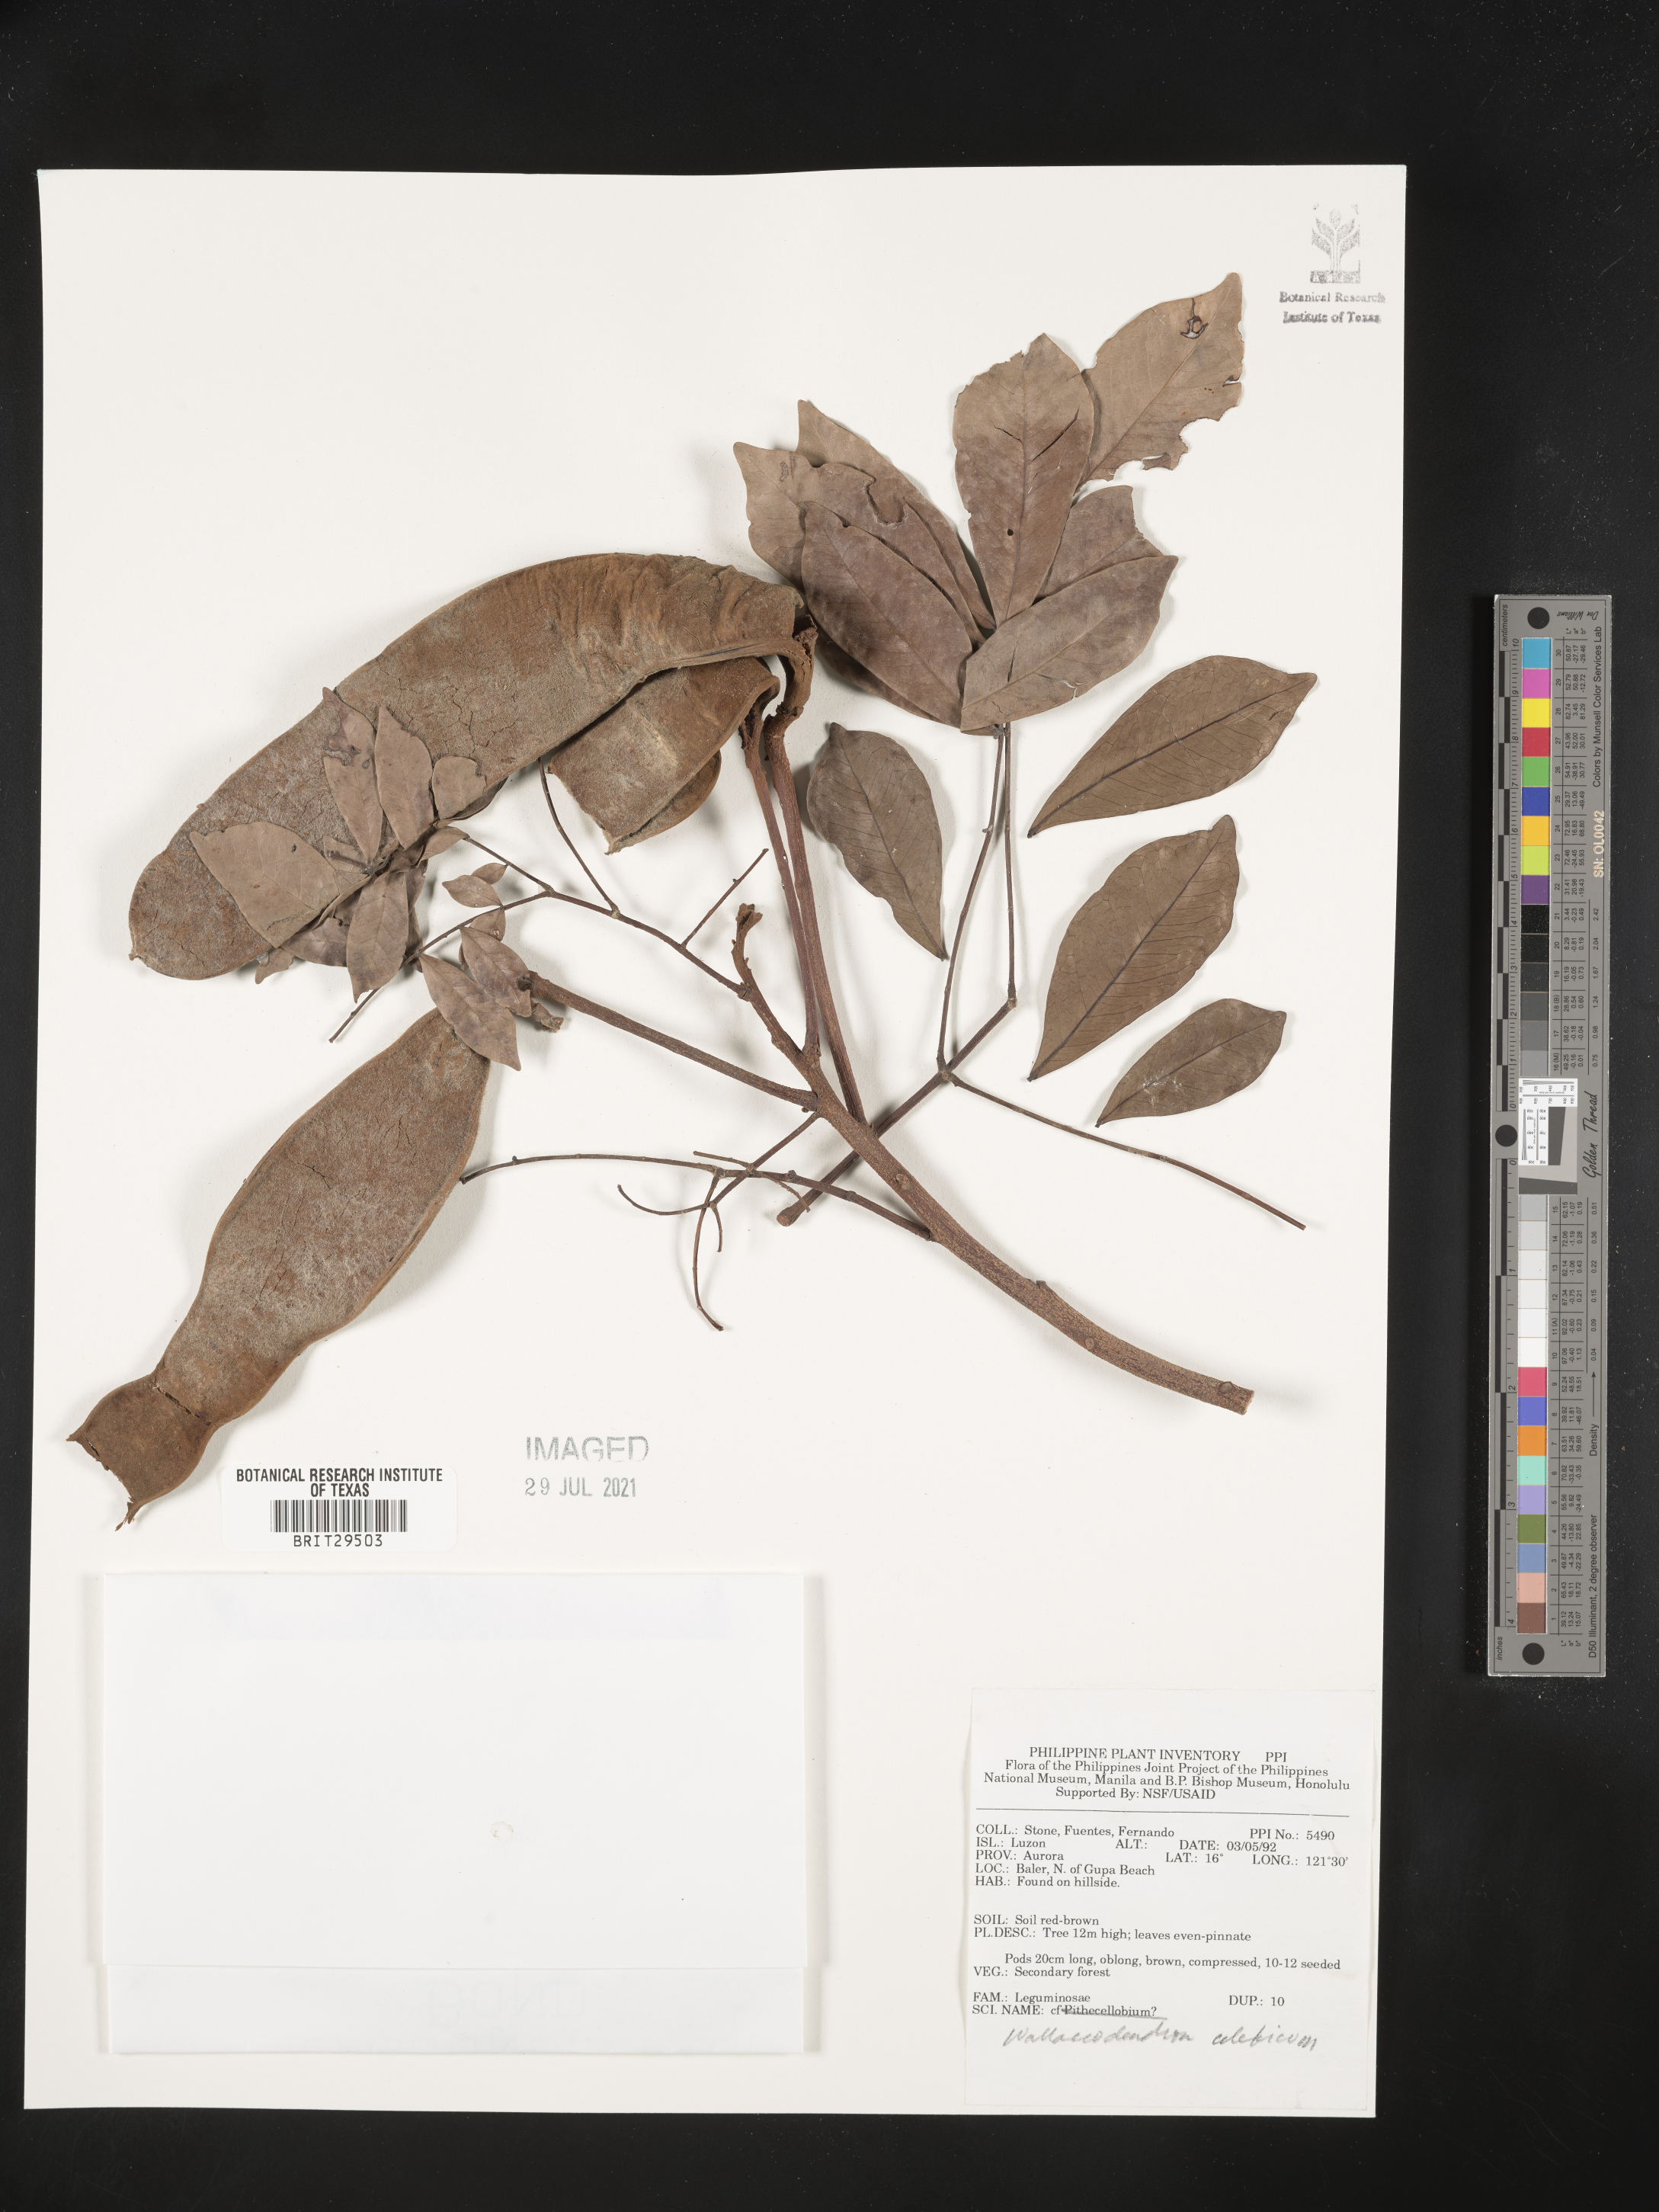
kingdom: Plantae
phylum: Tracheophyta
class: Magnoliopsida
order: Fabales
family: Fabaceae
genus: Wallaceodendron
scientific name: Wallaceodendron celebicum
